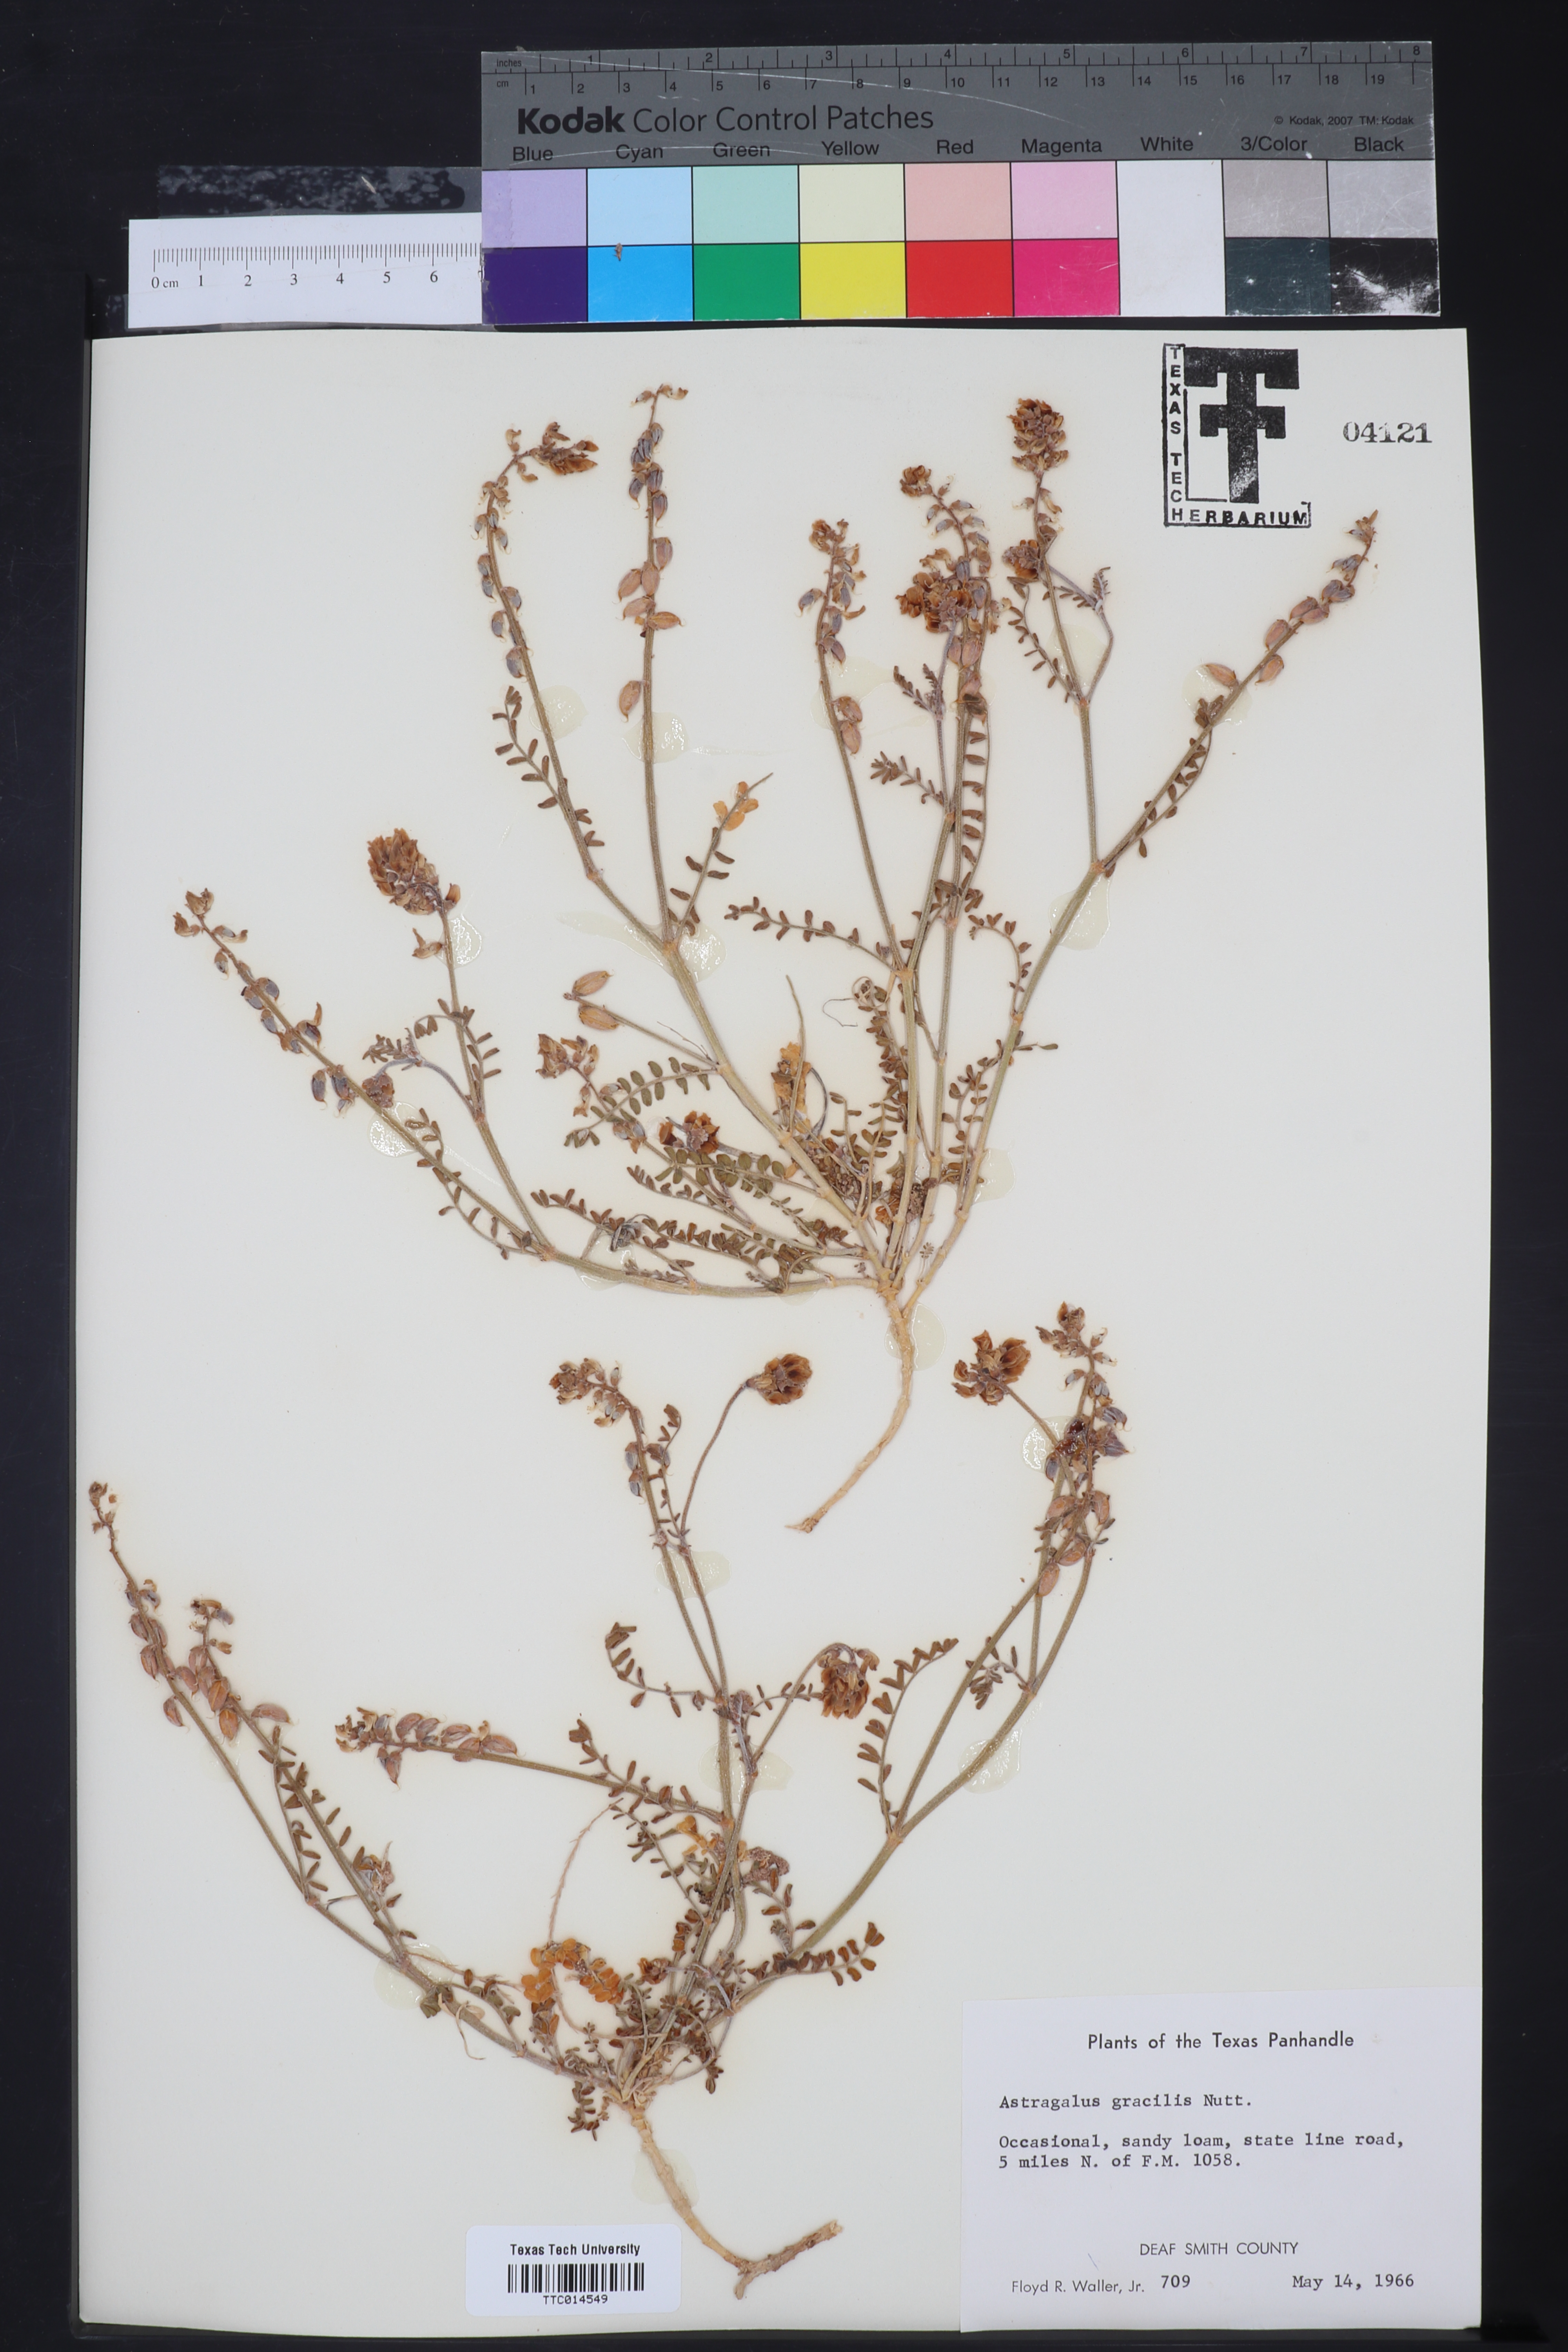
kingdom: Plantae
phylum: Tracheophyta
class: Magnoliopsida
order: Fabales
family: Fabaceae
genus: Astragalus
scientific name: Astragalus gracilis
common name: Slender milk-vetch
